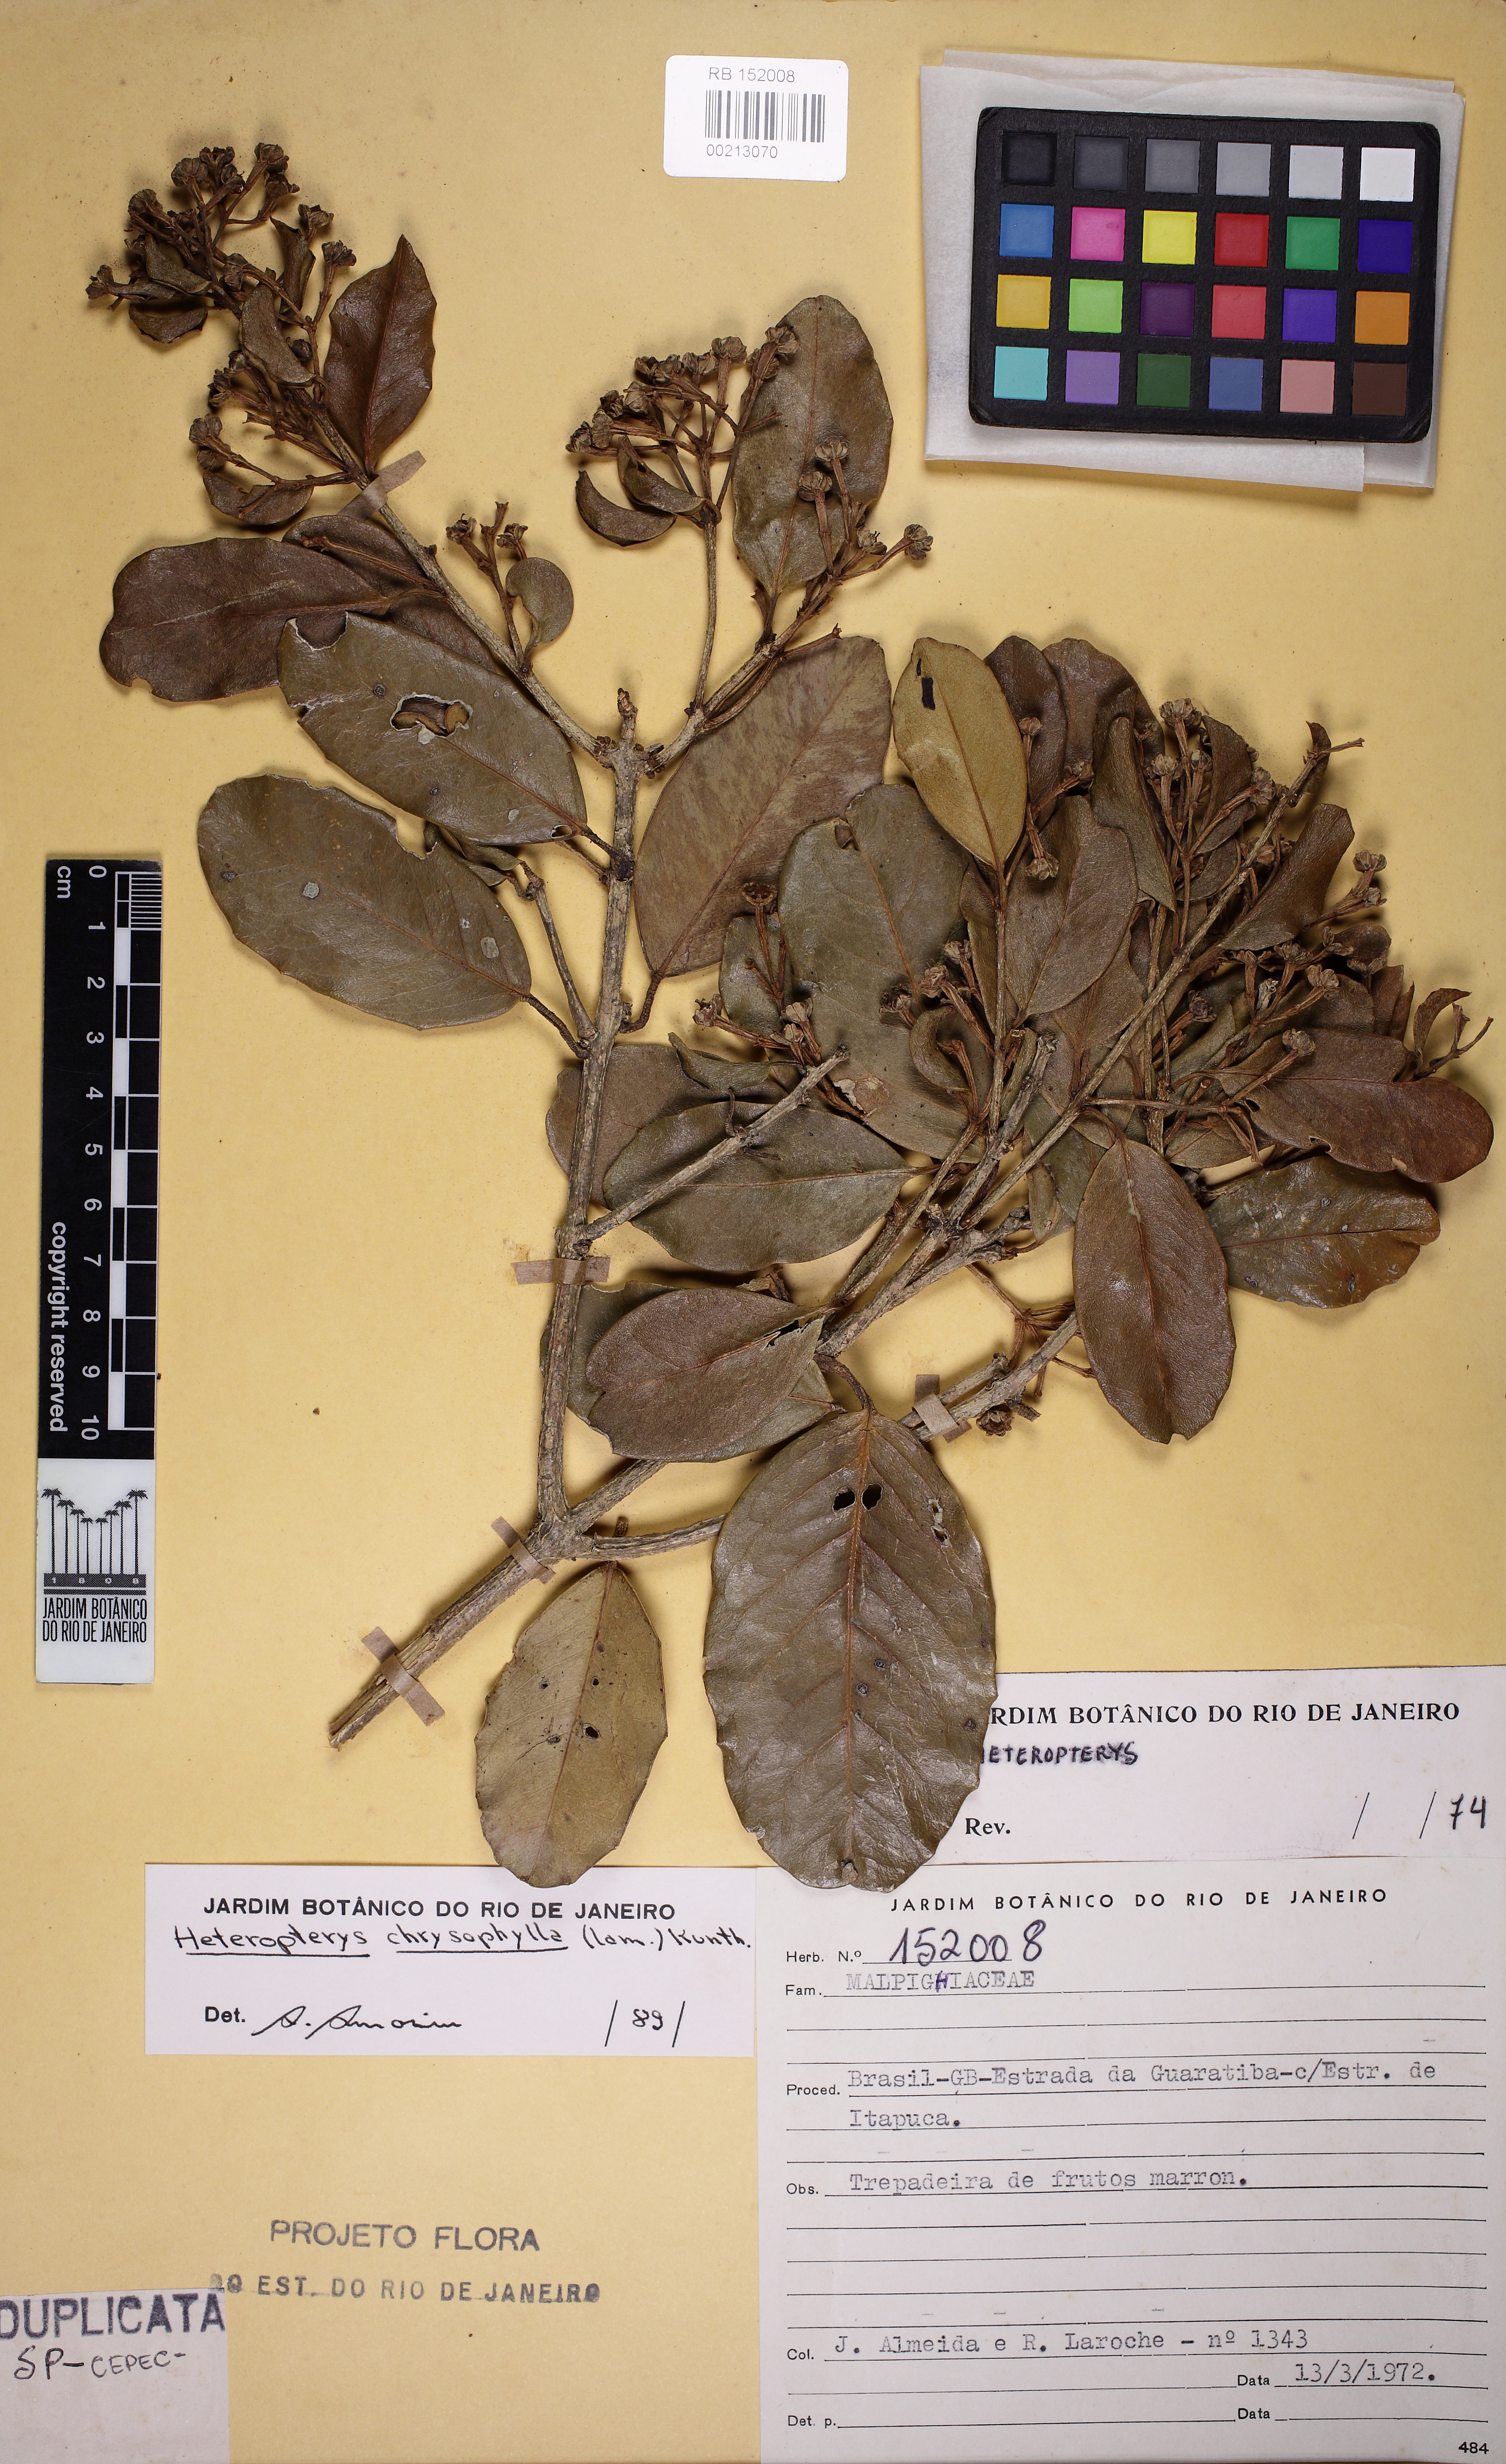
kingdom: Plantae
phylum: Tracheophyta
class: Magnoliopsida
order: Malpighiales
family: Malpighiaceae
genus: Heteropterys
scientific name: Heteropterys chrysophylla
